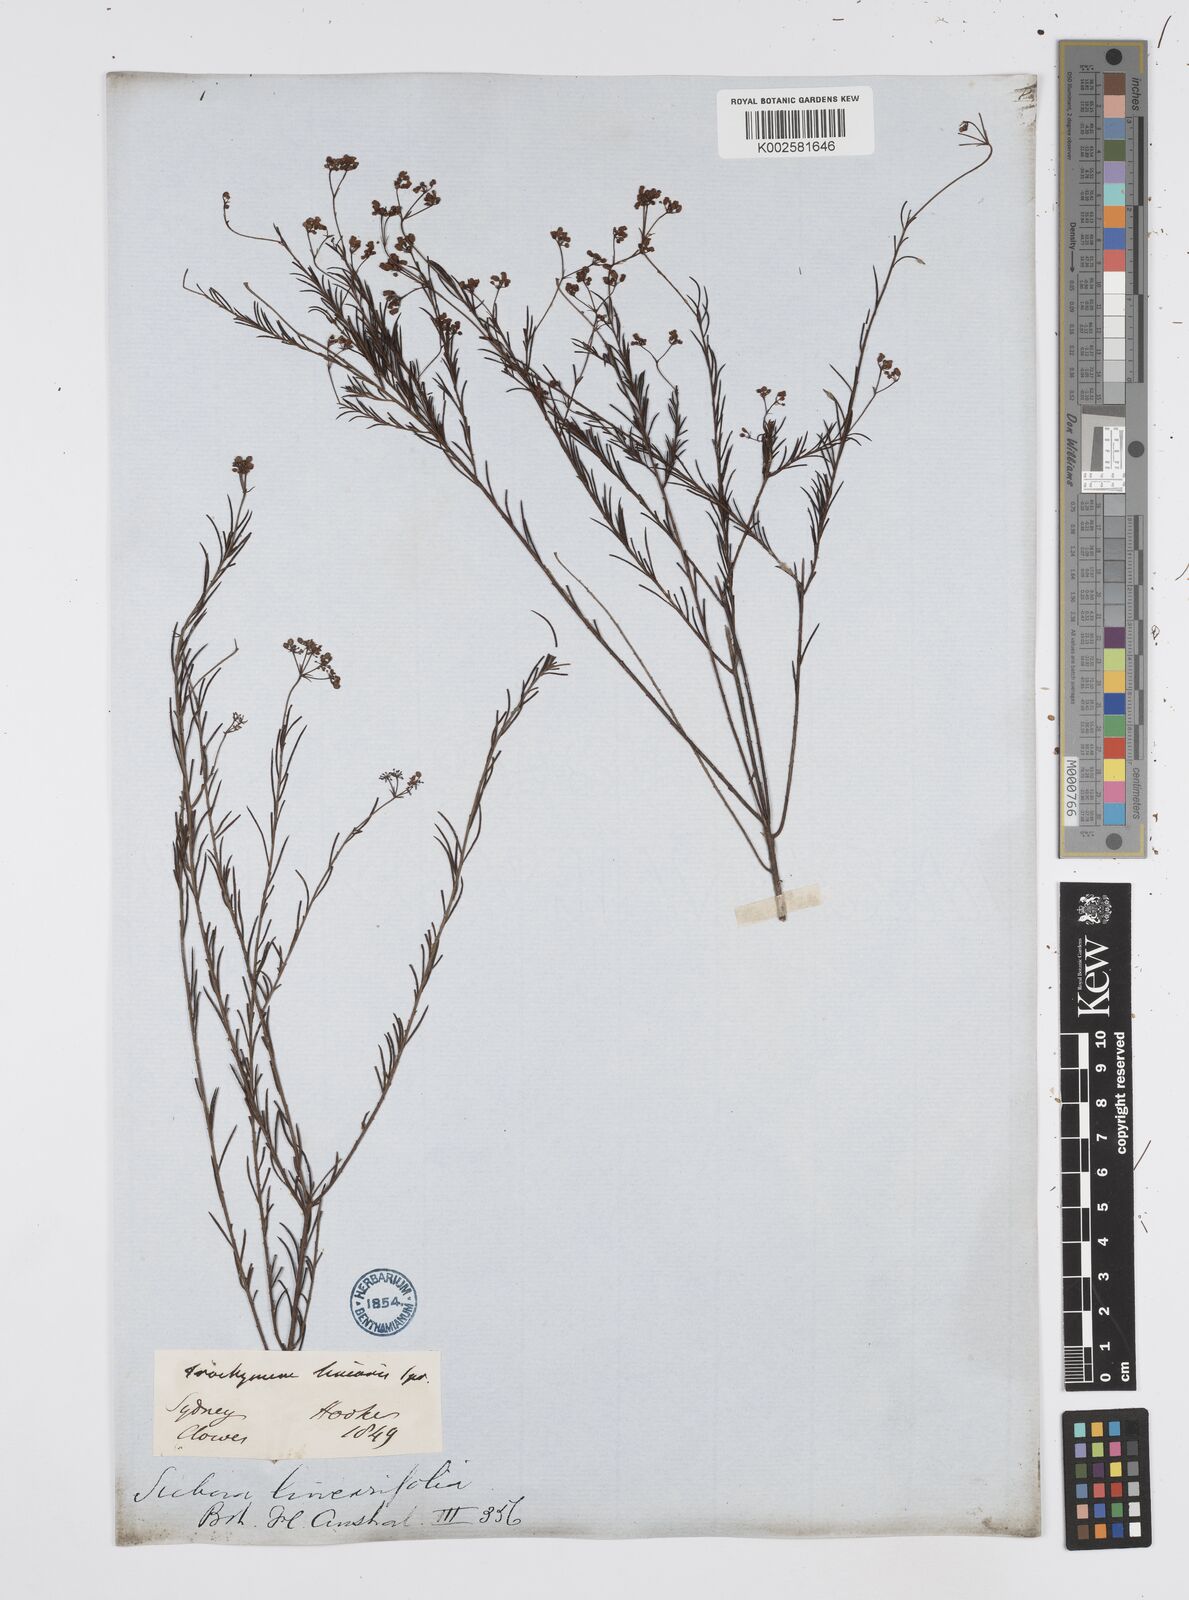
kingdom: Plantae
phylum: Tracheophyta
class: Magnoliopsida
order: Apiales
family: Apiaceae
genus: Platysace
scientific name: Platysace linearifolia
